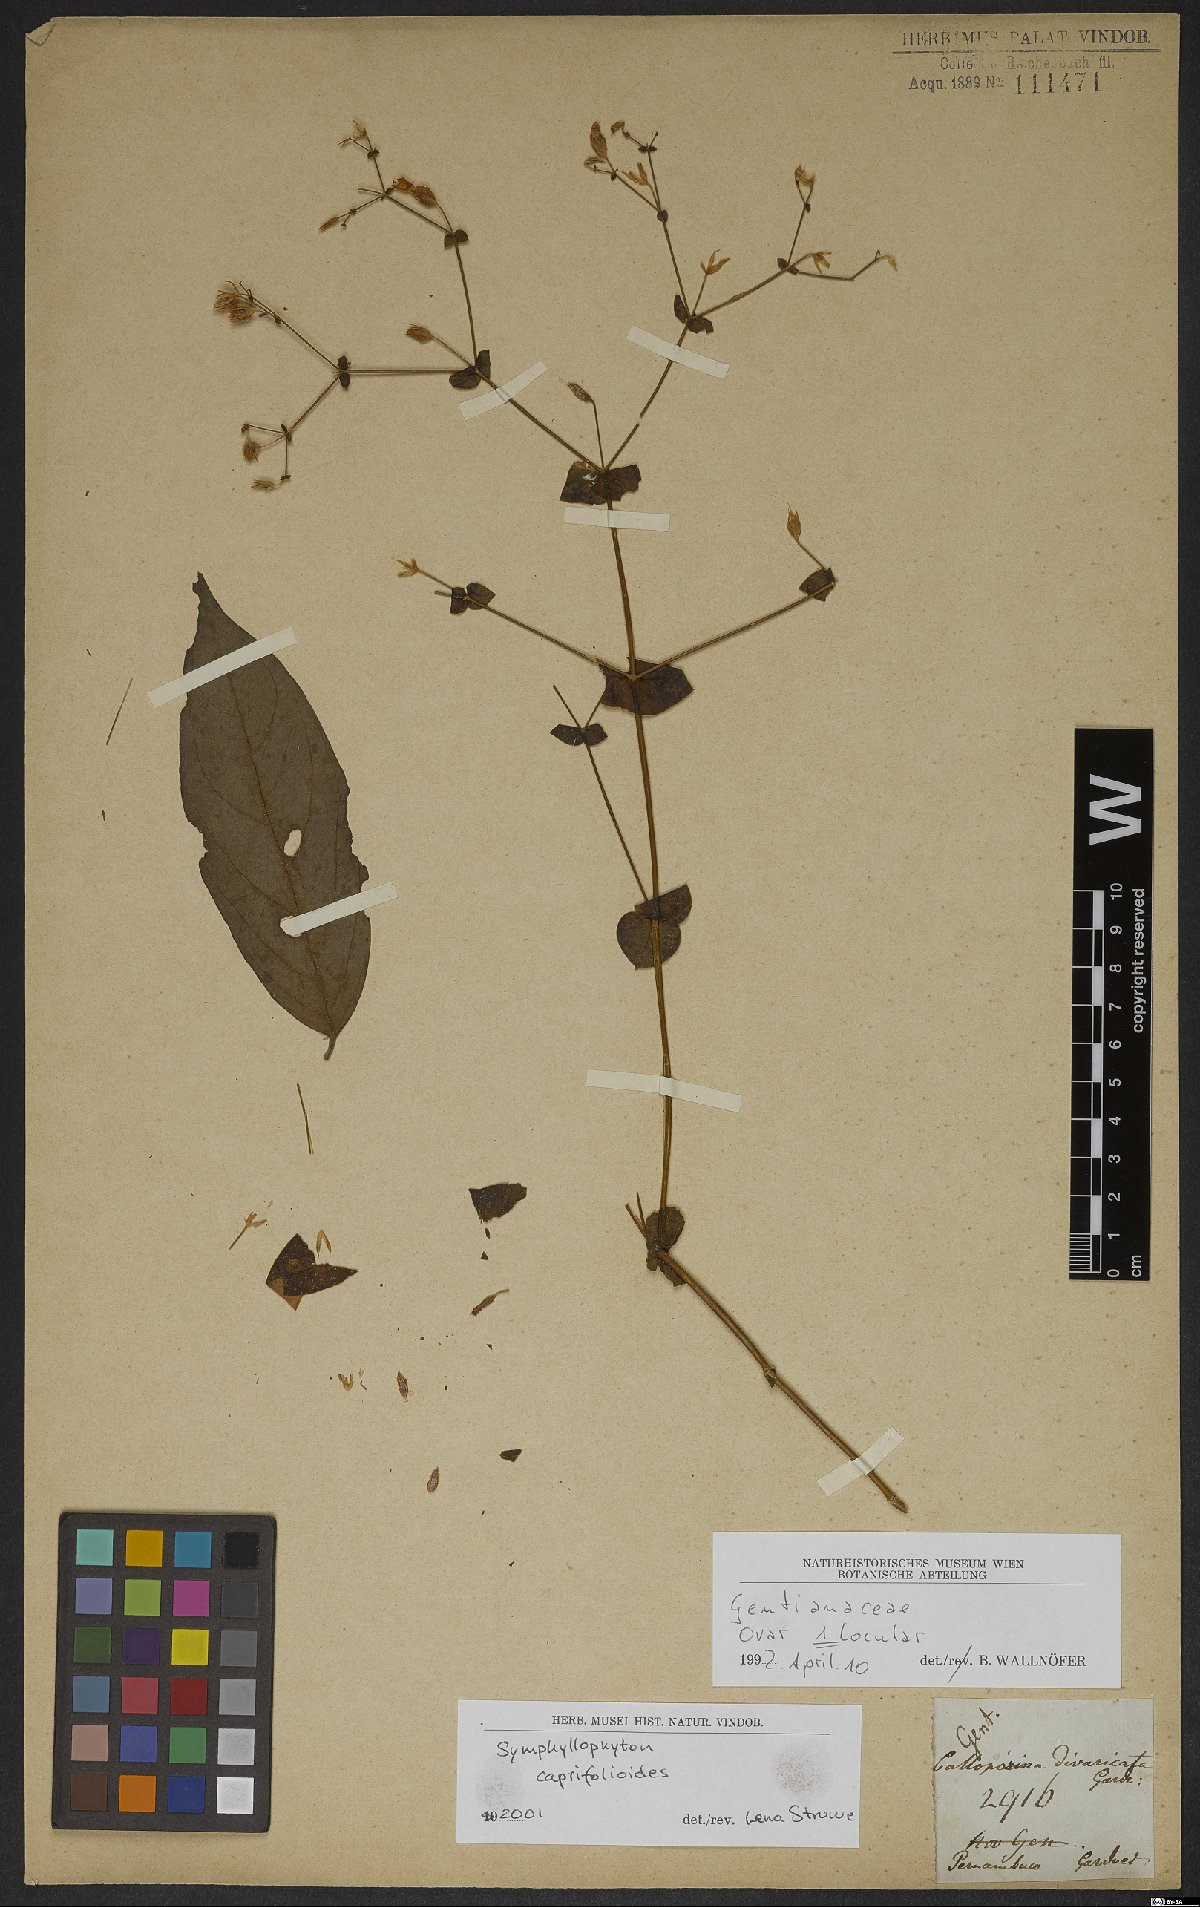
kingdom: Plantae
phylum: Tracheophyta
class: Magnoliopsida
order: Gentianales
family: Gentianaceae
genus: Symphyllophyton
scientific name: Symphyllophyton campos-portoi
